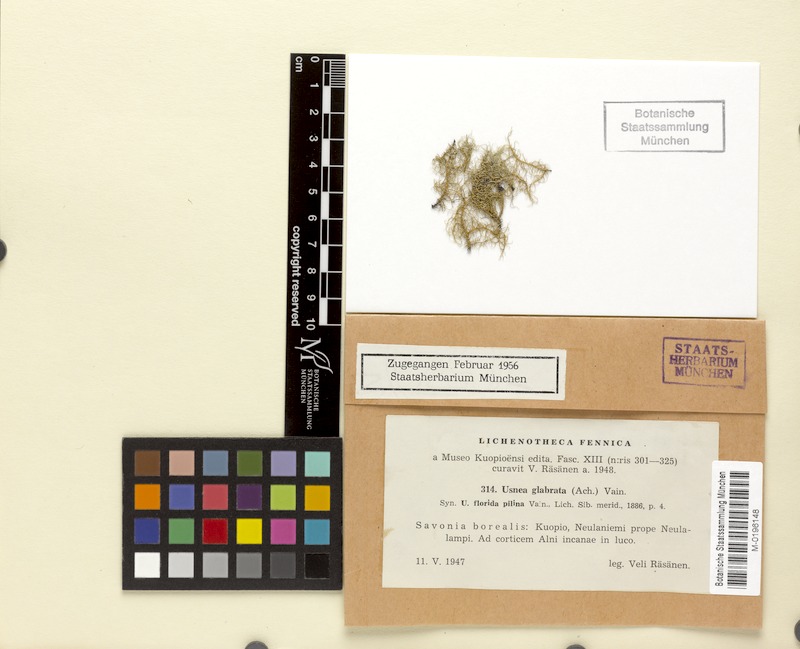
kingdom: Fungi
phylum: Ascomycota
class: Lecanoromycetes
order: Lecanorales
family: Parmeliaceae
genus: Usnea
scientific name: Usnea glabrata
